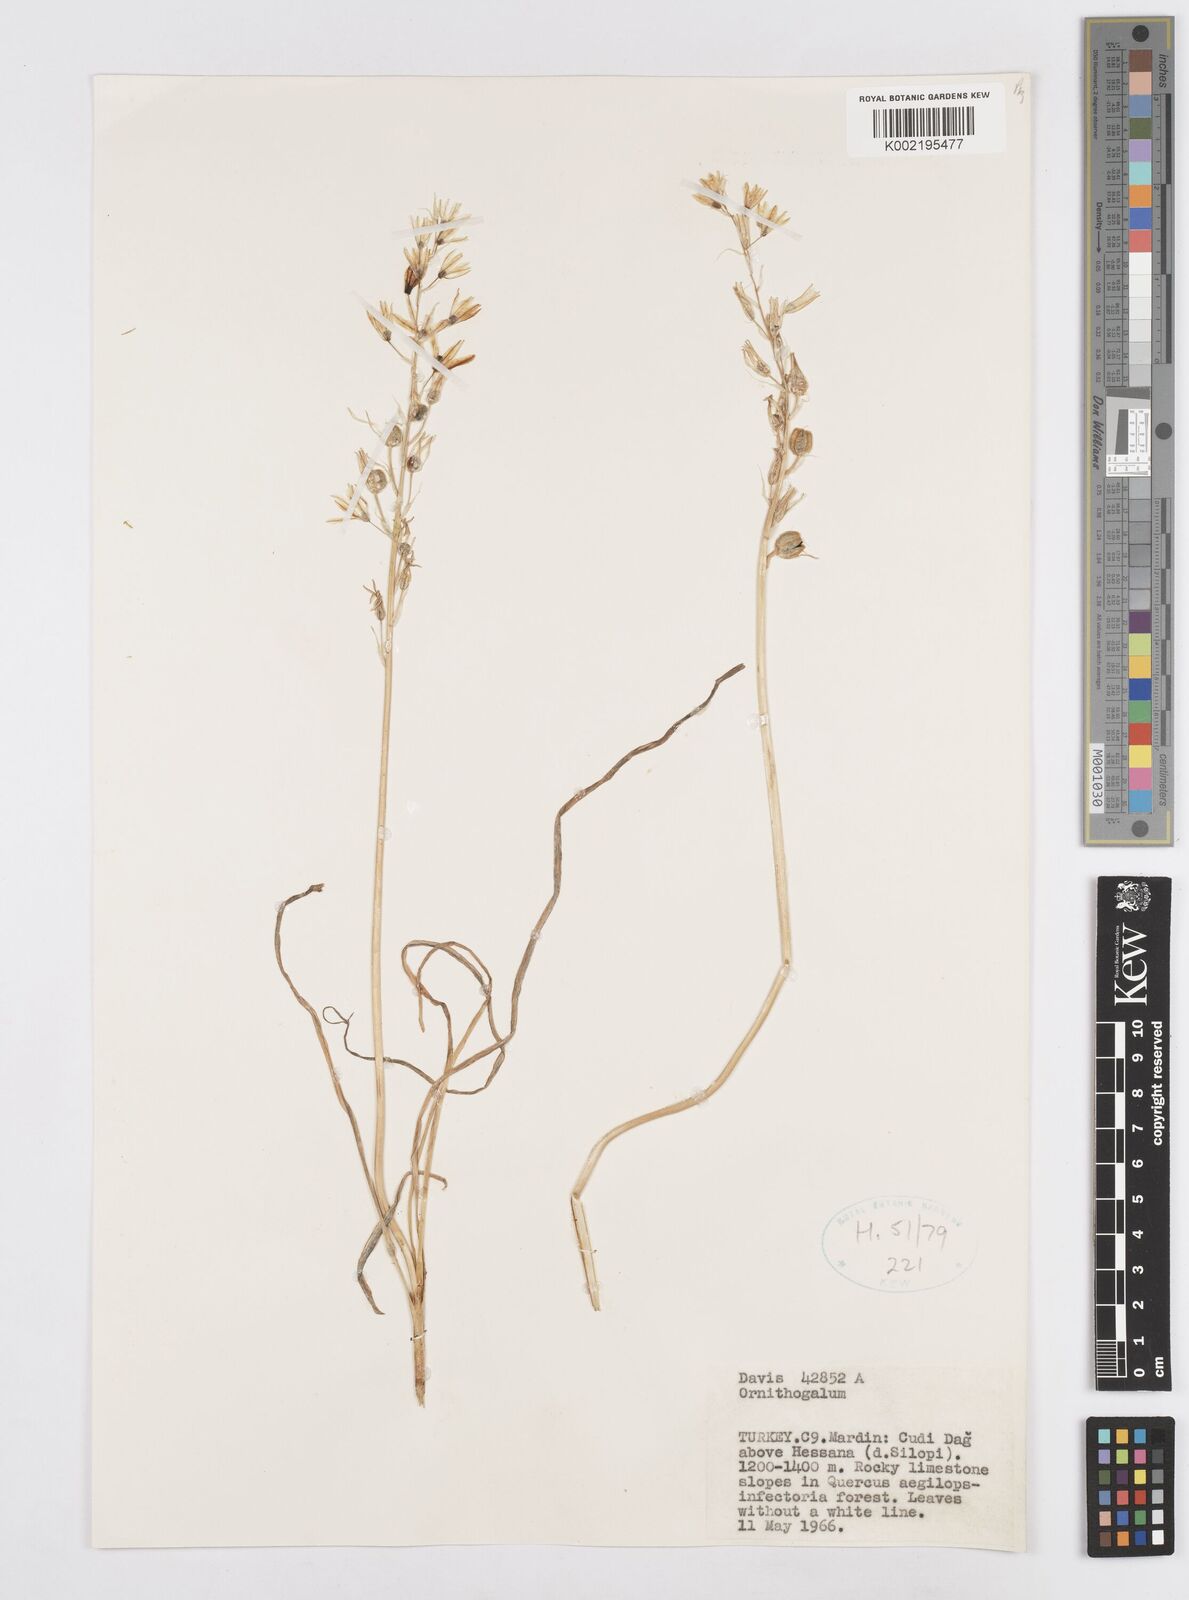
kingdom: Plantae
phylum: Tracheophyta
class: Liliopsida
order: Asparagales
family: Asparagaceae
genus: Ornithogalum
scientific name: Ornithogalum
